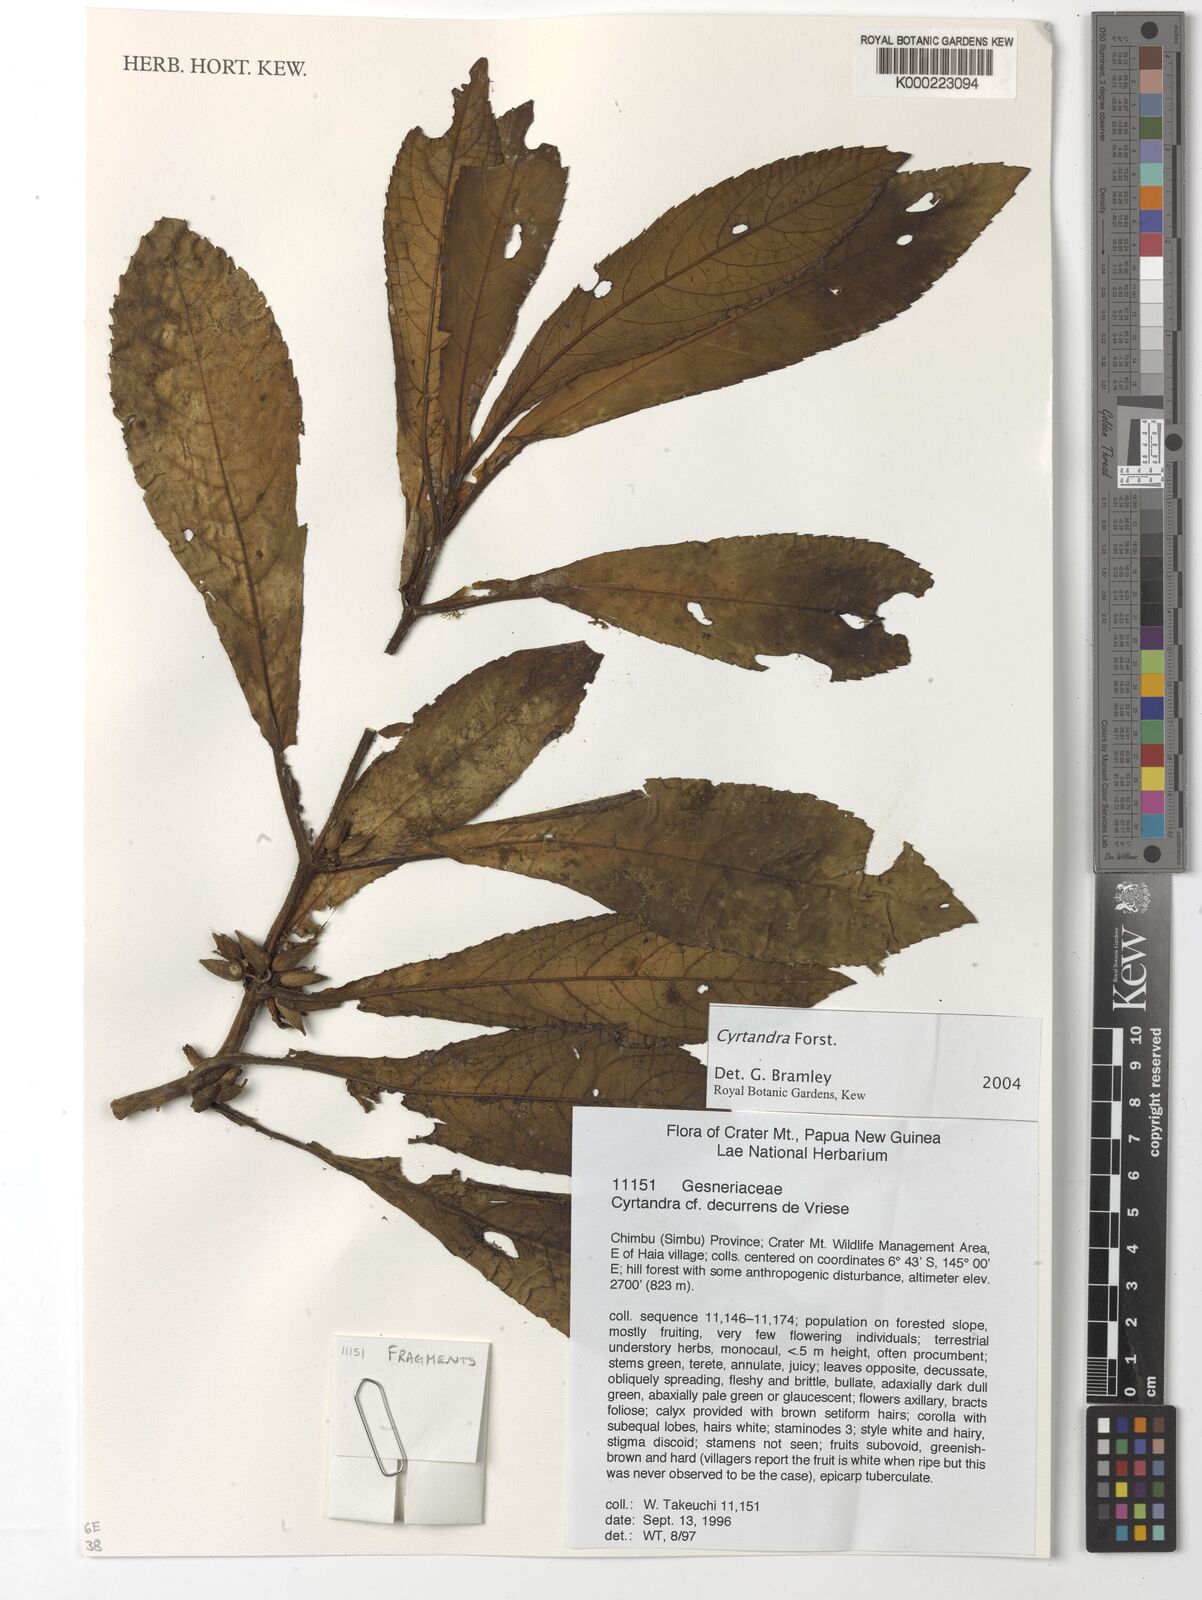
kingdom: Plantae
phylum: Tracheophyta
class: Magnoliopsida
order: Lamiales
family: Gesneriaceae
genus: Cyrtandra
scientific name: Cyrtandra
